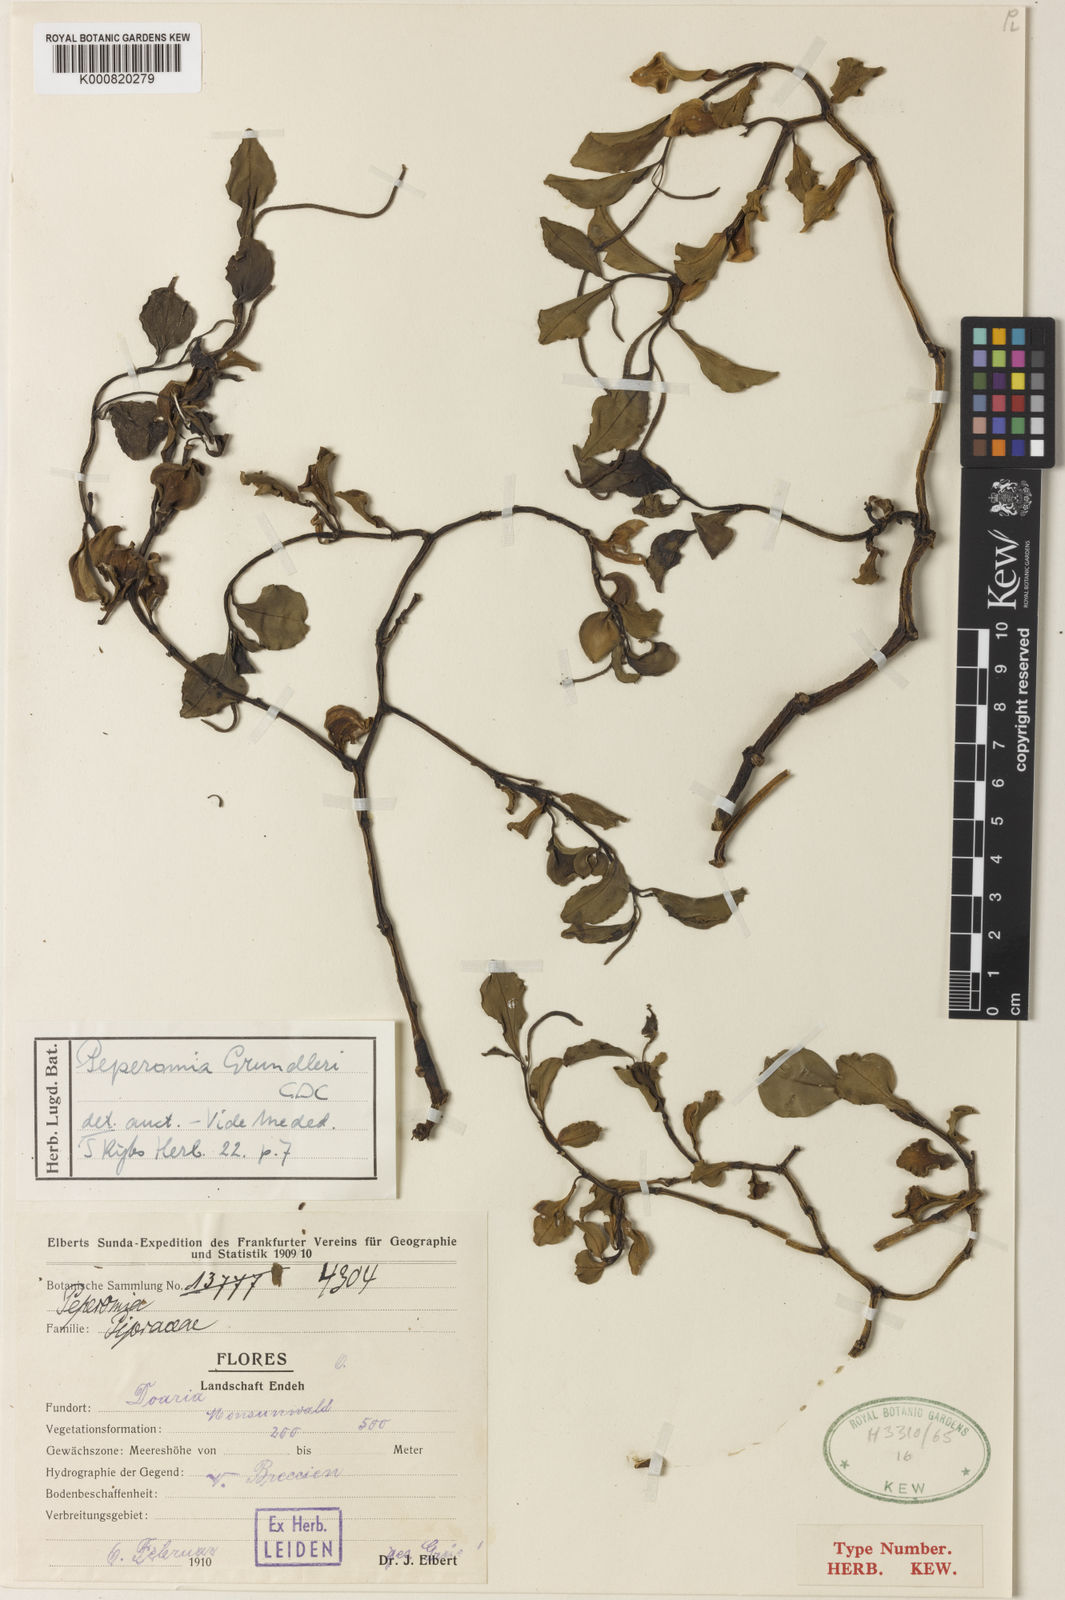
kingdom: Plantae
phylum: Tracheophyta
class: Magnoliopsida
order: Piperales
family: Piperaceae
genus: Peperomia
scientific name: Peperomia gruendleri
